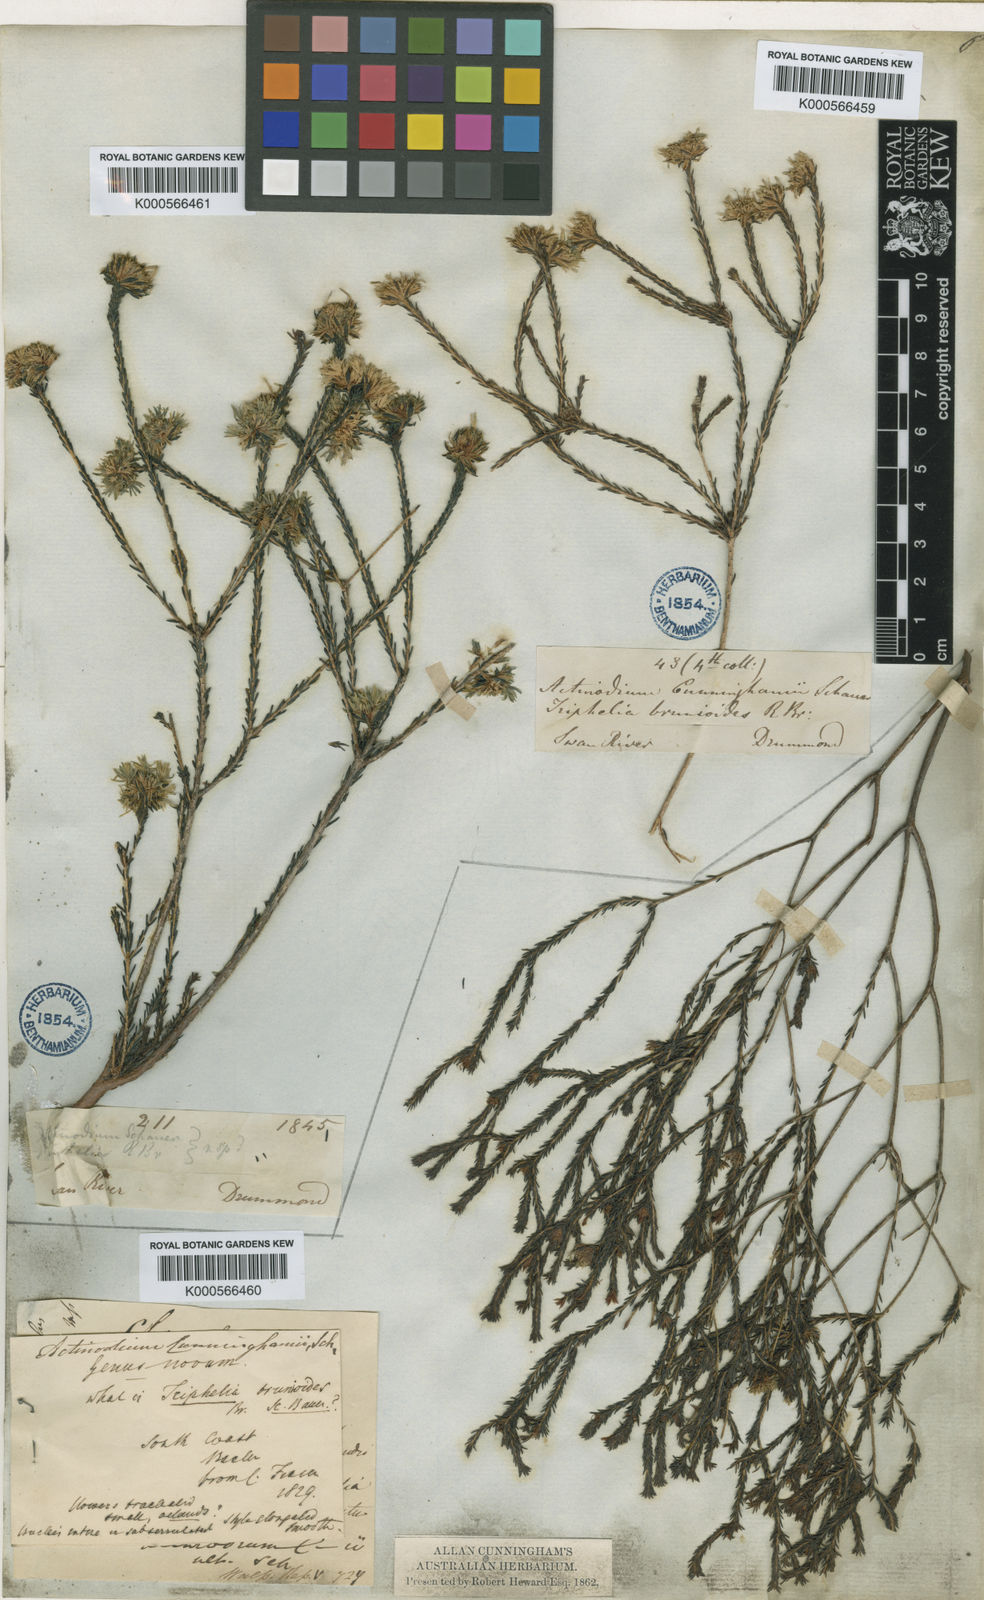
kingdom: Plantae
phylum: Tracheophyta
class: Magnoliopsida
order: Myrtales
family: Myrtaceae
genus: Actinodium
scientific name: Actinodium cunninghamii
